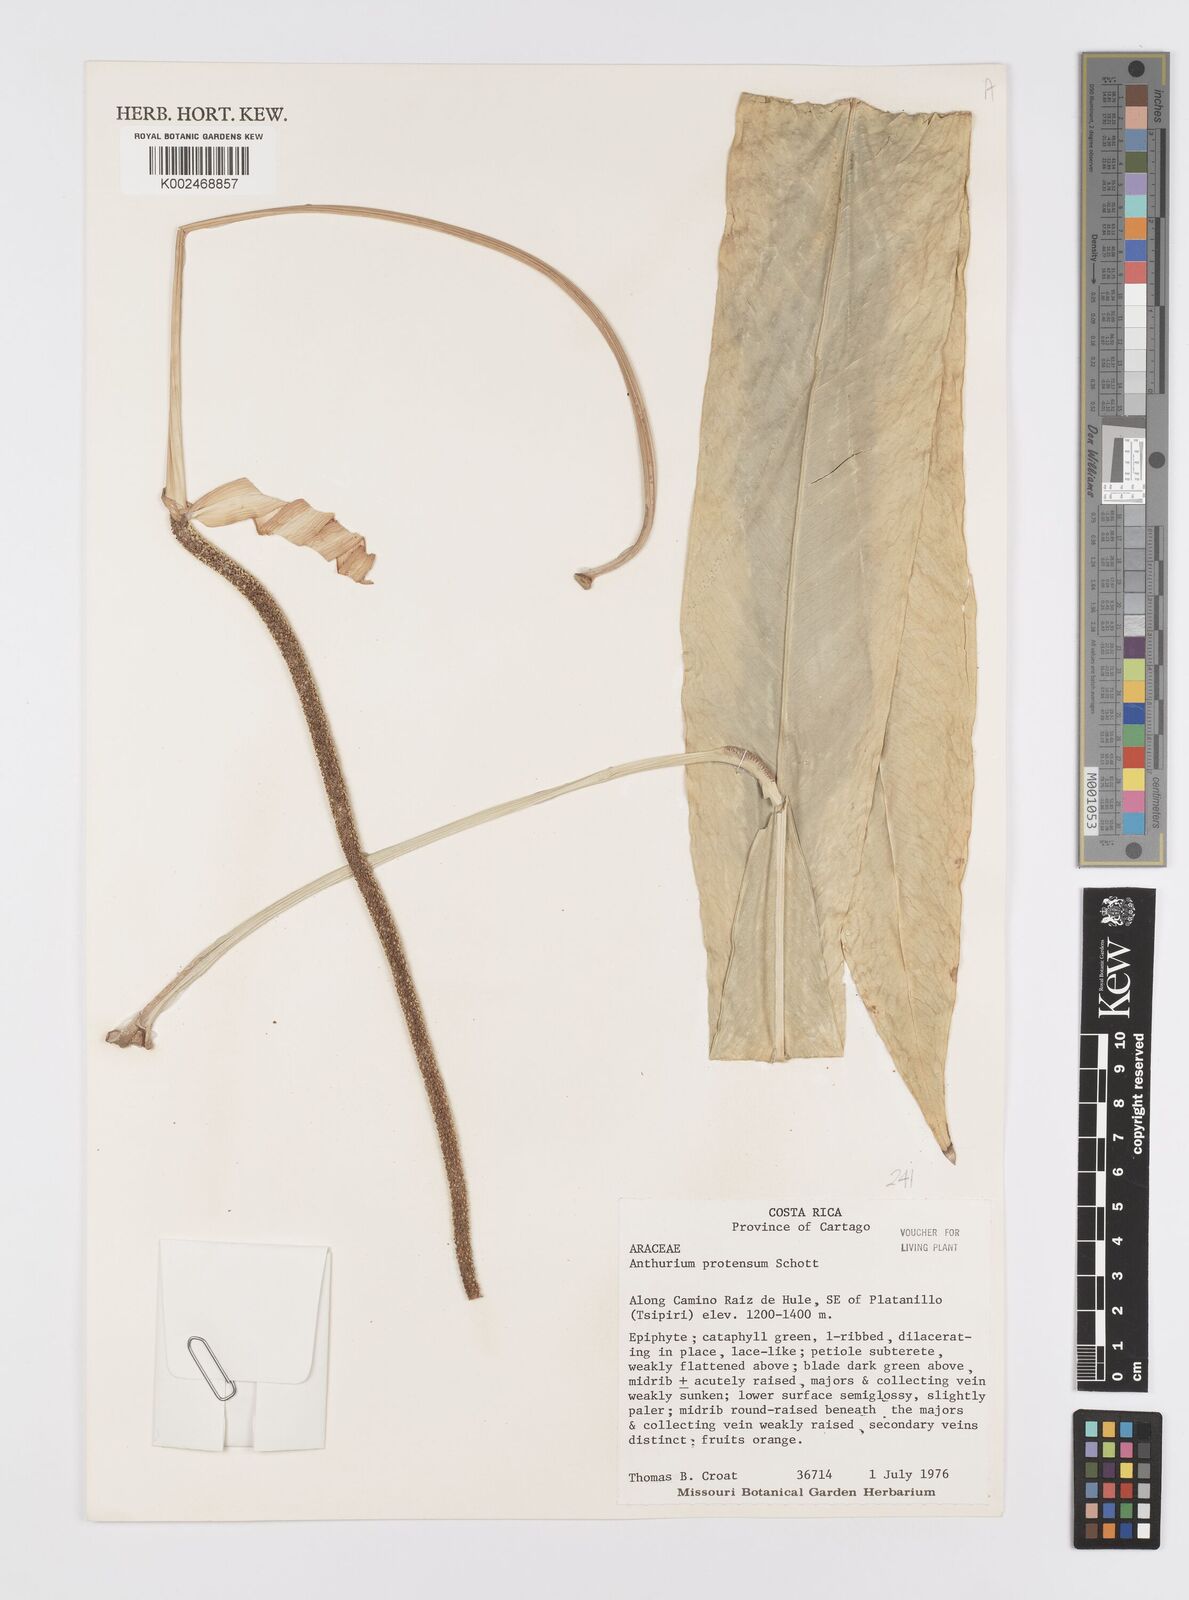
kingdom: Plantae
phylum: Tracheophyta
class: Liliopsida
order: Alismatales
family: Araceae
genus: Anthurium
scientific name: Anthurium protensum
